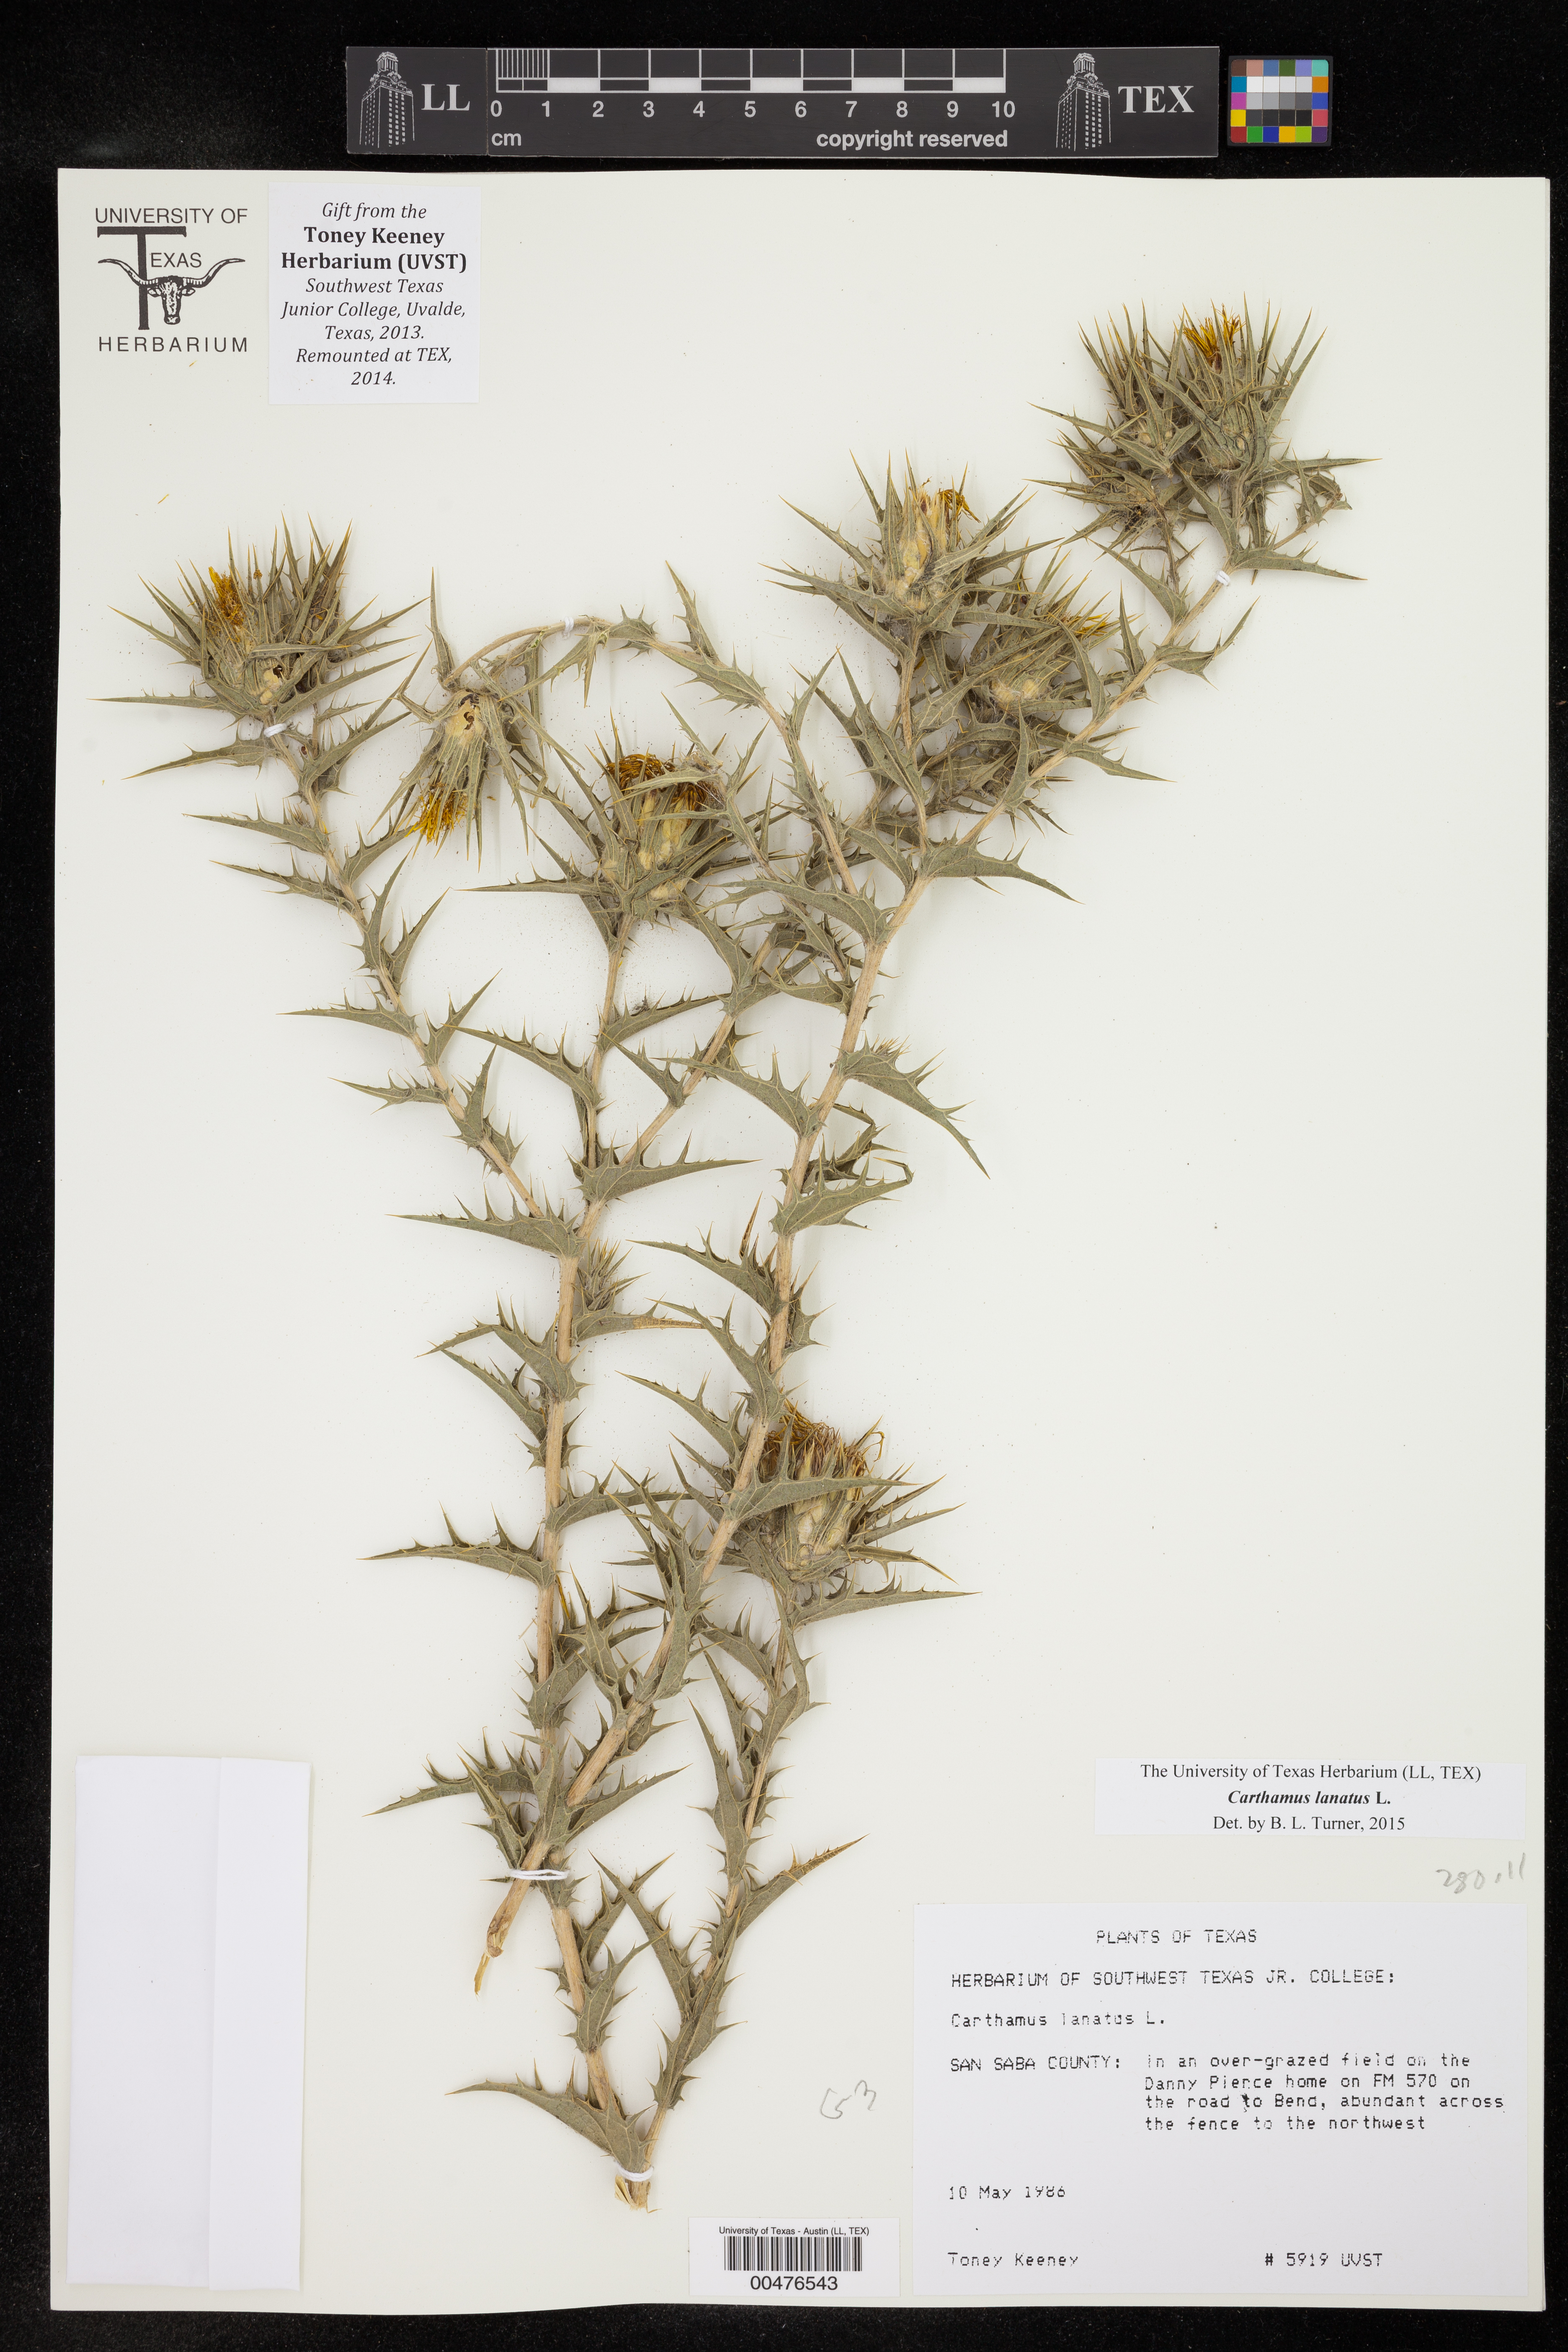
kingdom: Plantae
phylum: Tracheophyta
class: Magnoliopsida
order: Asterales
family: Asteraceae
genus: Carthamus
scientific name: Carthamus lanatus
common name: Downy safflower
